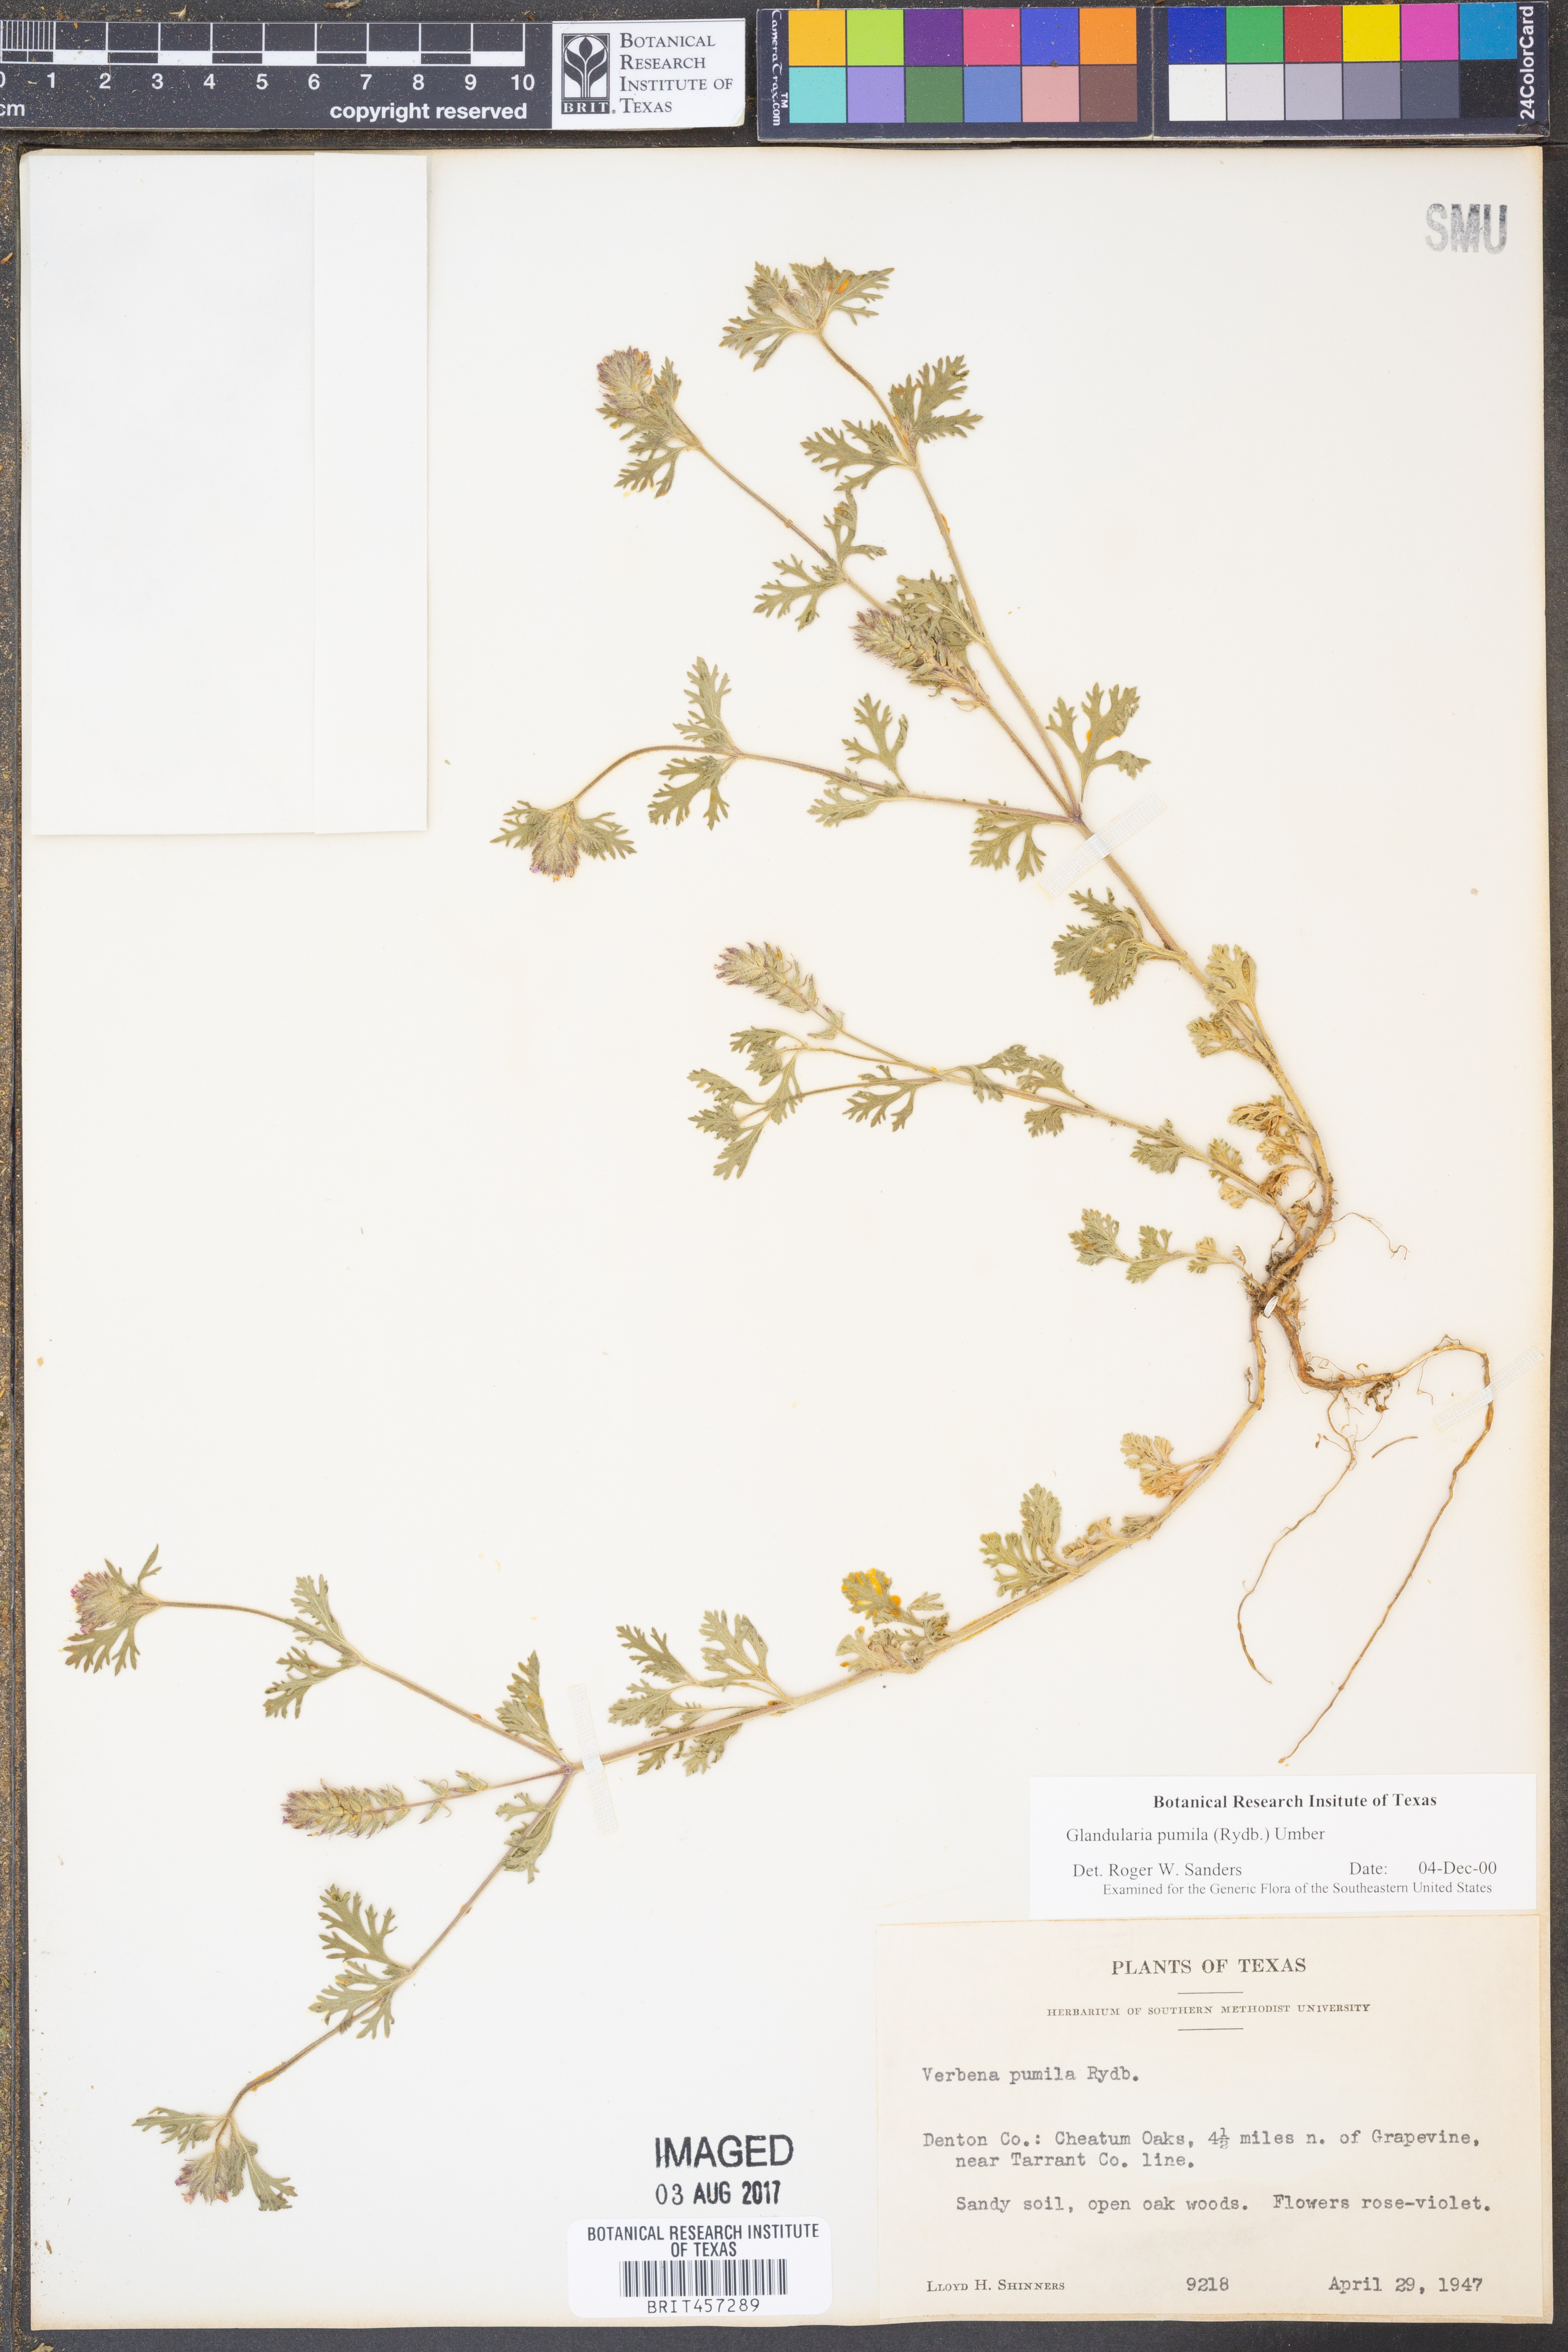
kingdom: Plantae
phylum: Tracheophyta
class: Magnoliopsida
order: Lamiales
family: Verbenaceae
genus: Verbena
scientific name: Verbena pumila
